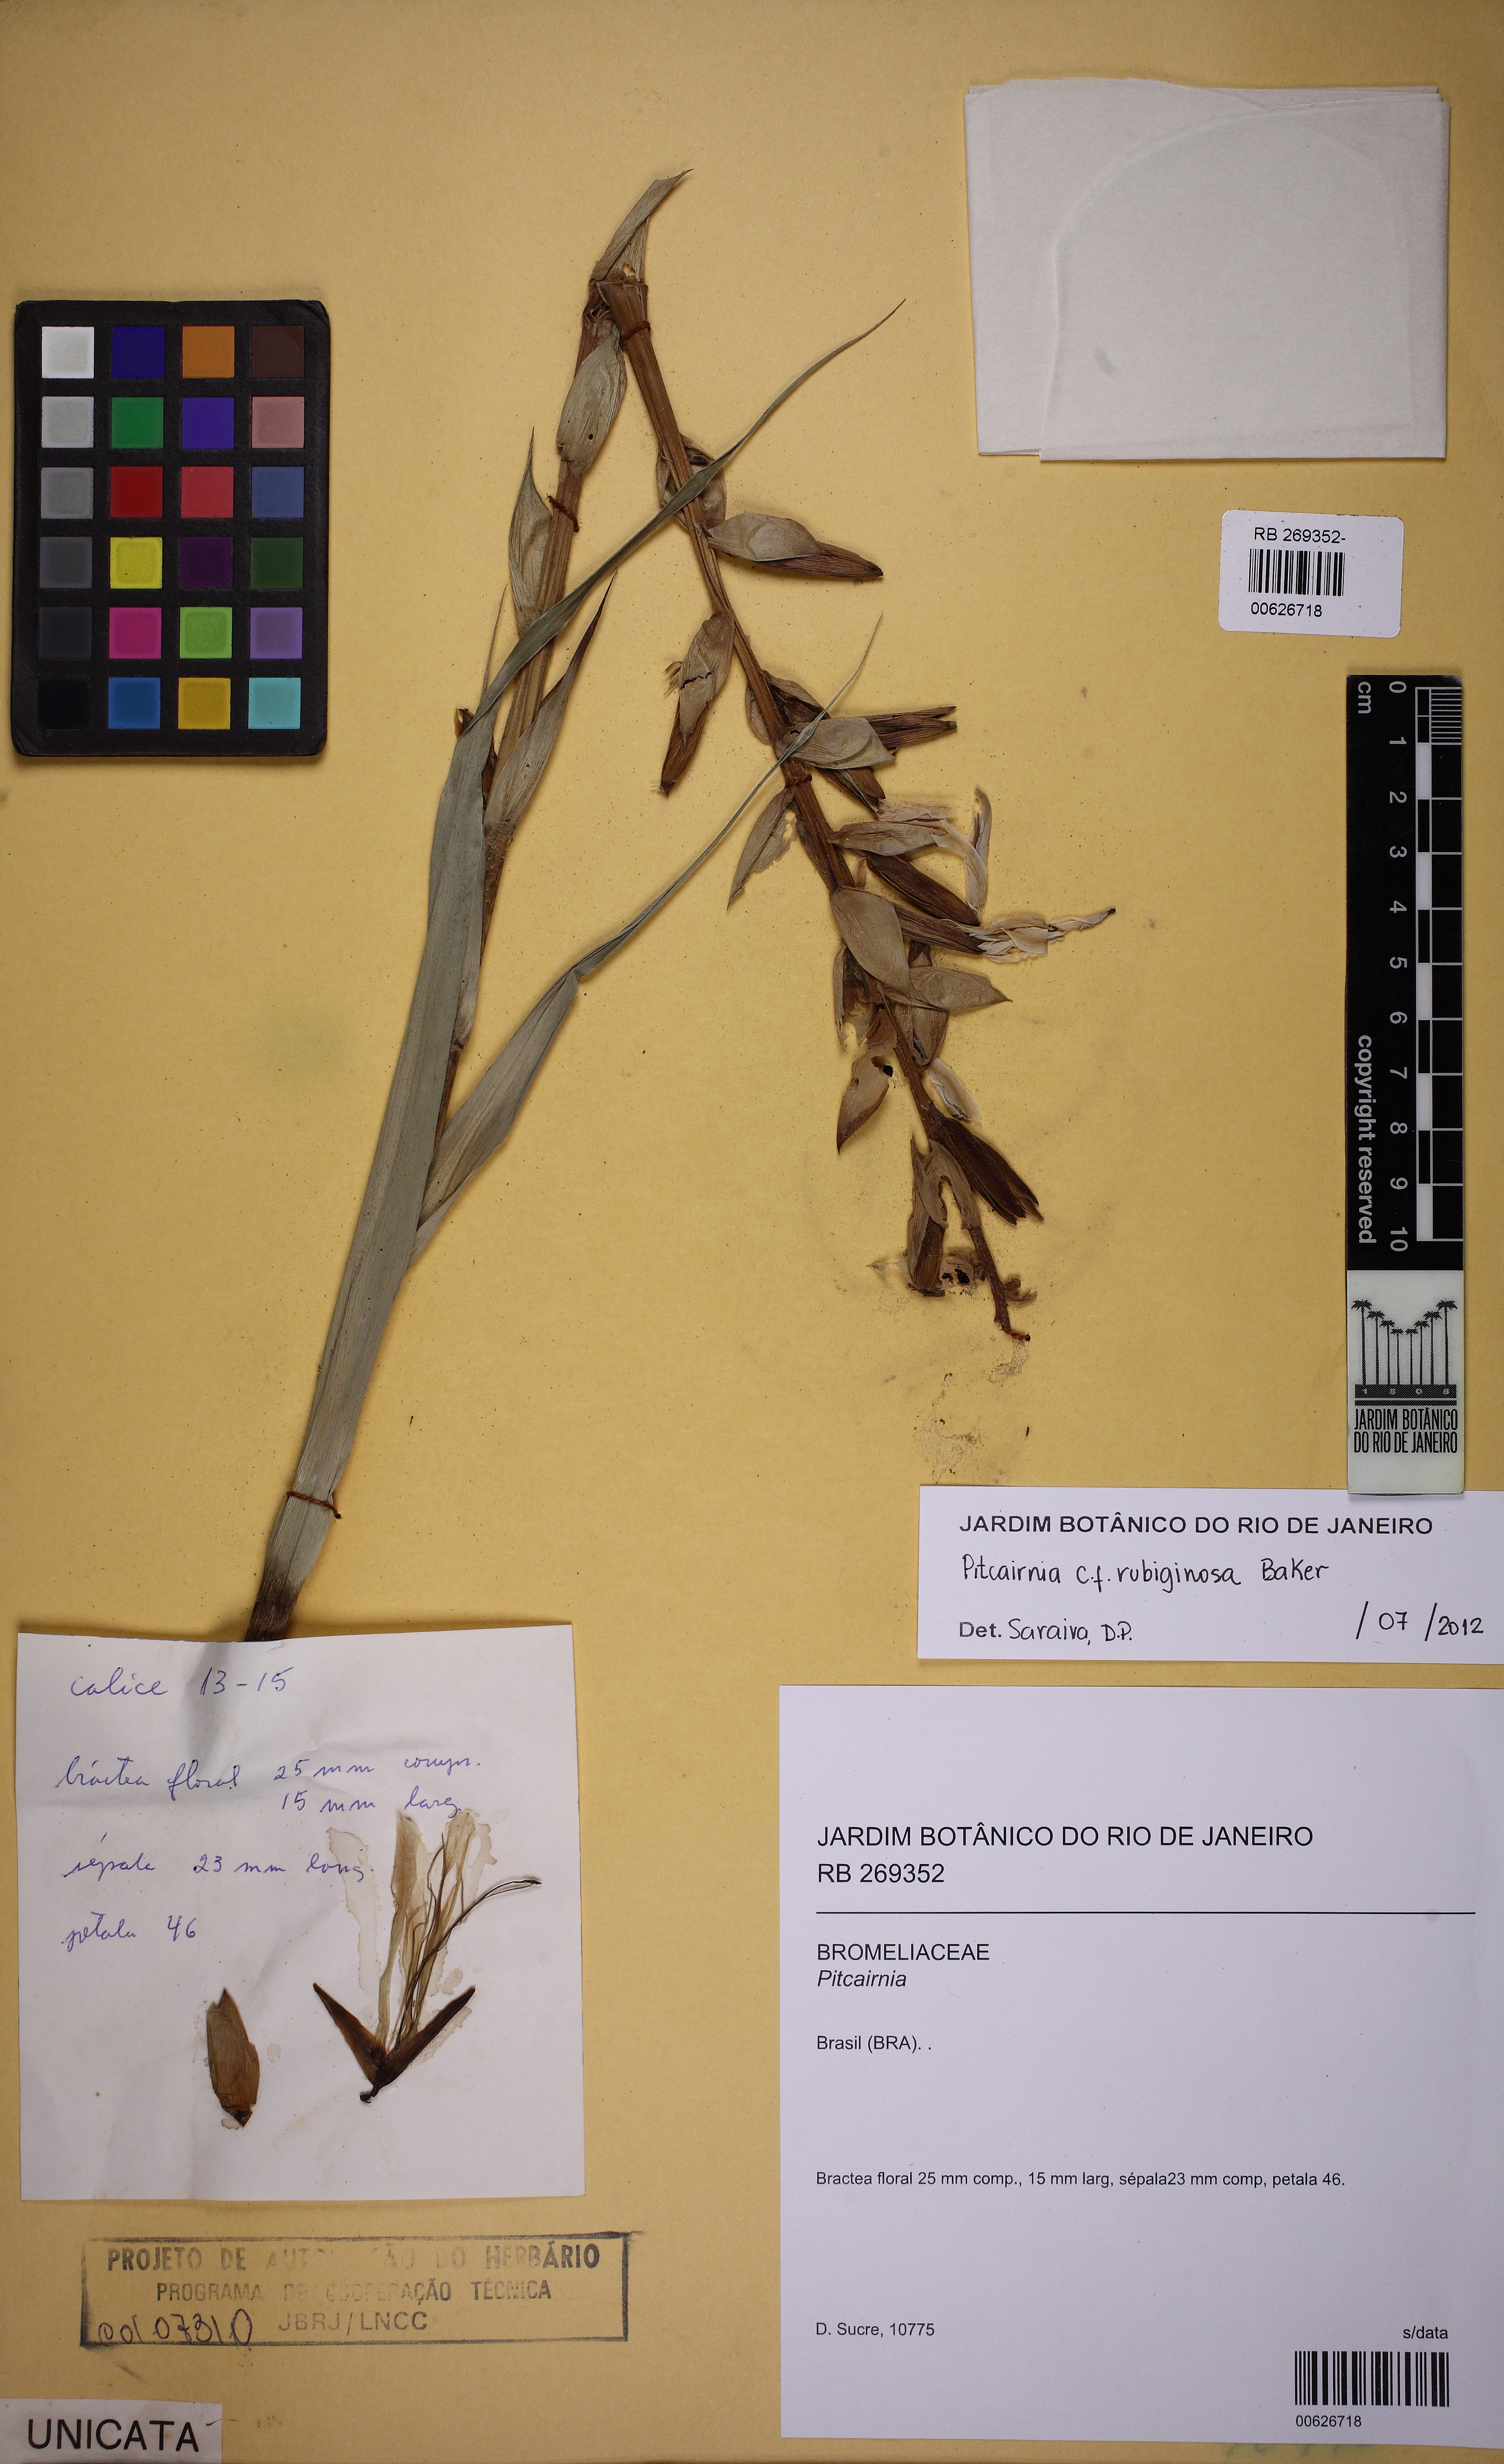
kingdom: Plantae
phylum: Tracheophyta
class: Liliopsida
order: Poales
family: Bromeliaceae
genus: Pitcairnia
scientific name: Pitcairnia rubiginosa
